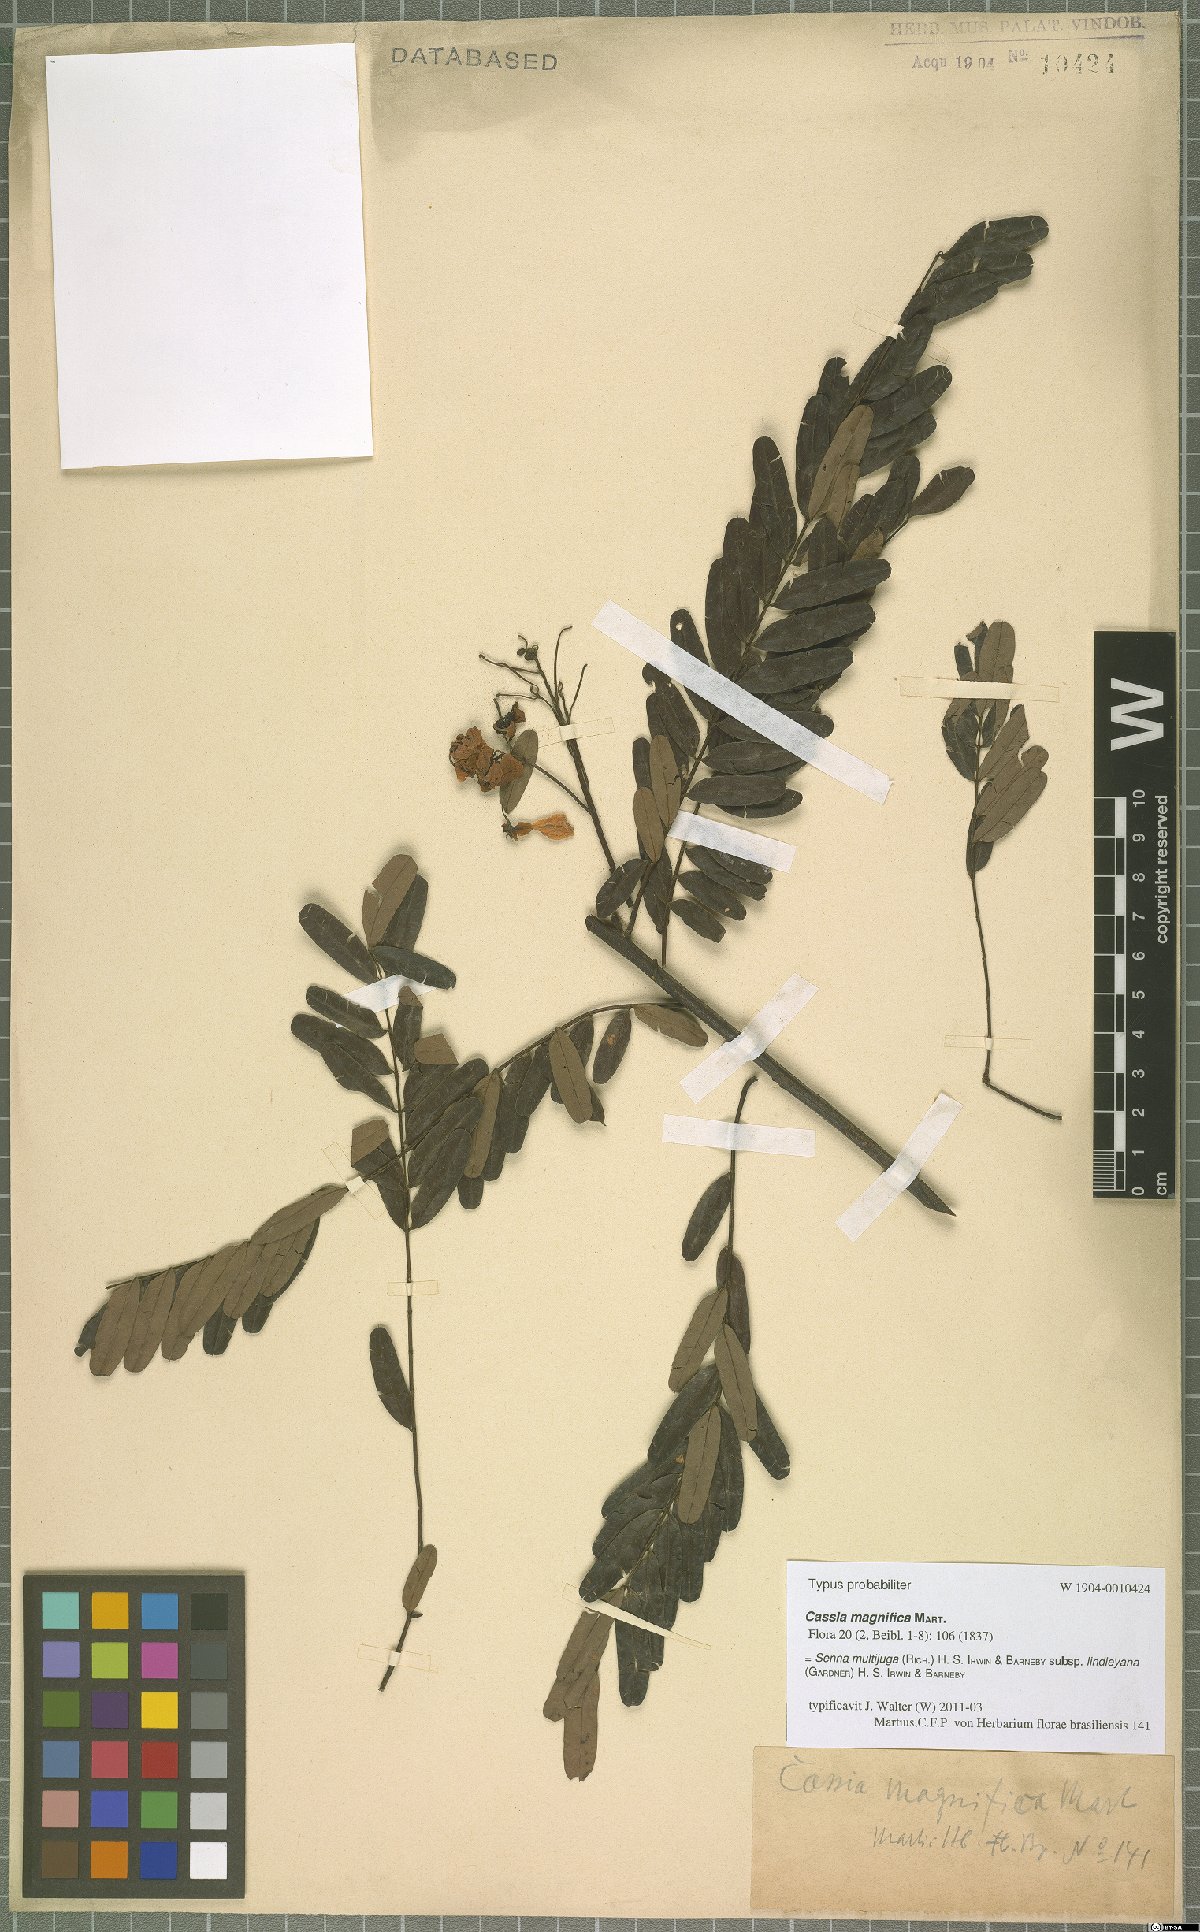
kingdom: Plantae
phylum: Tracheophyta
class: Magnoliopsida
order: Fabales
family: Fabaceae
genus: Senna
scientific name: Senna multijuga
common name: False sicklepod
